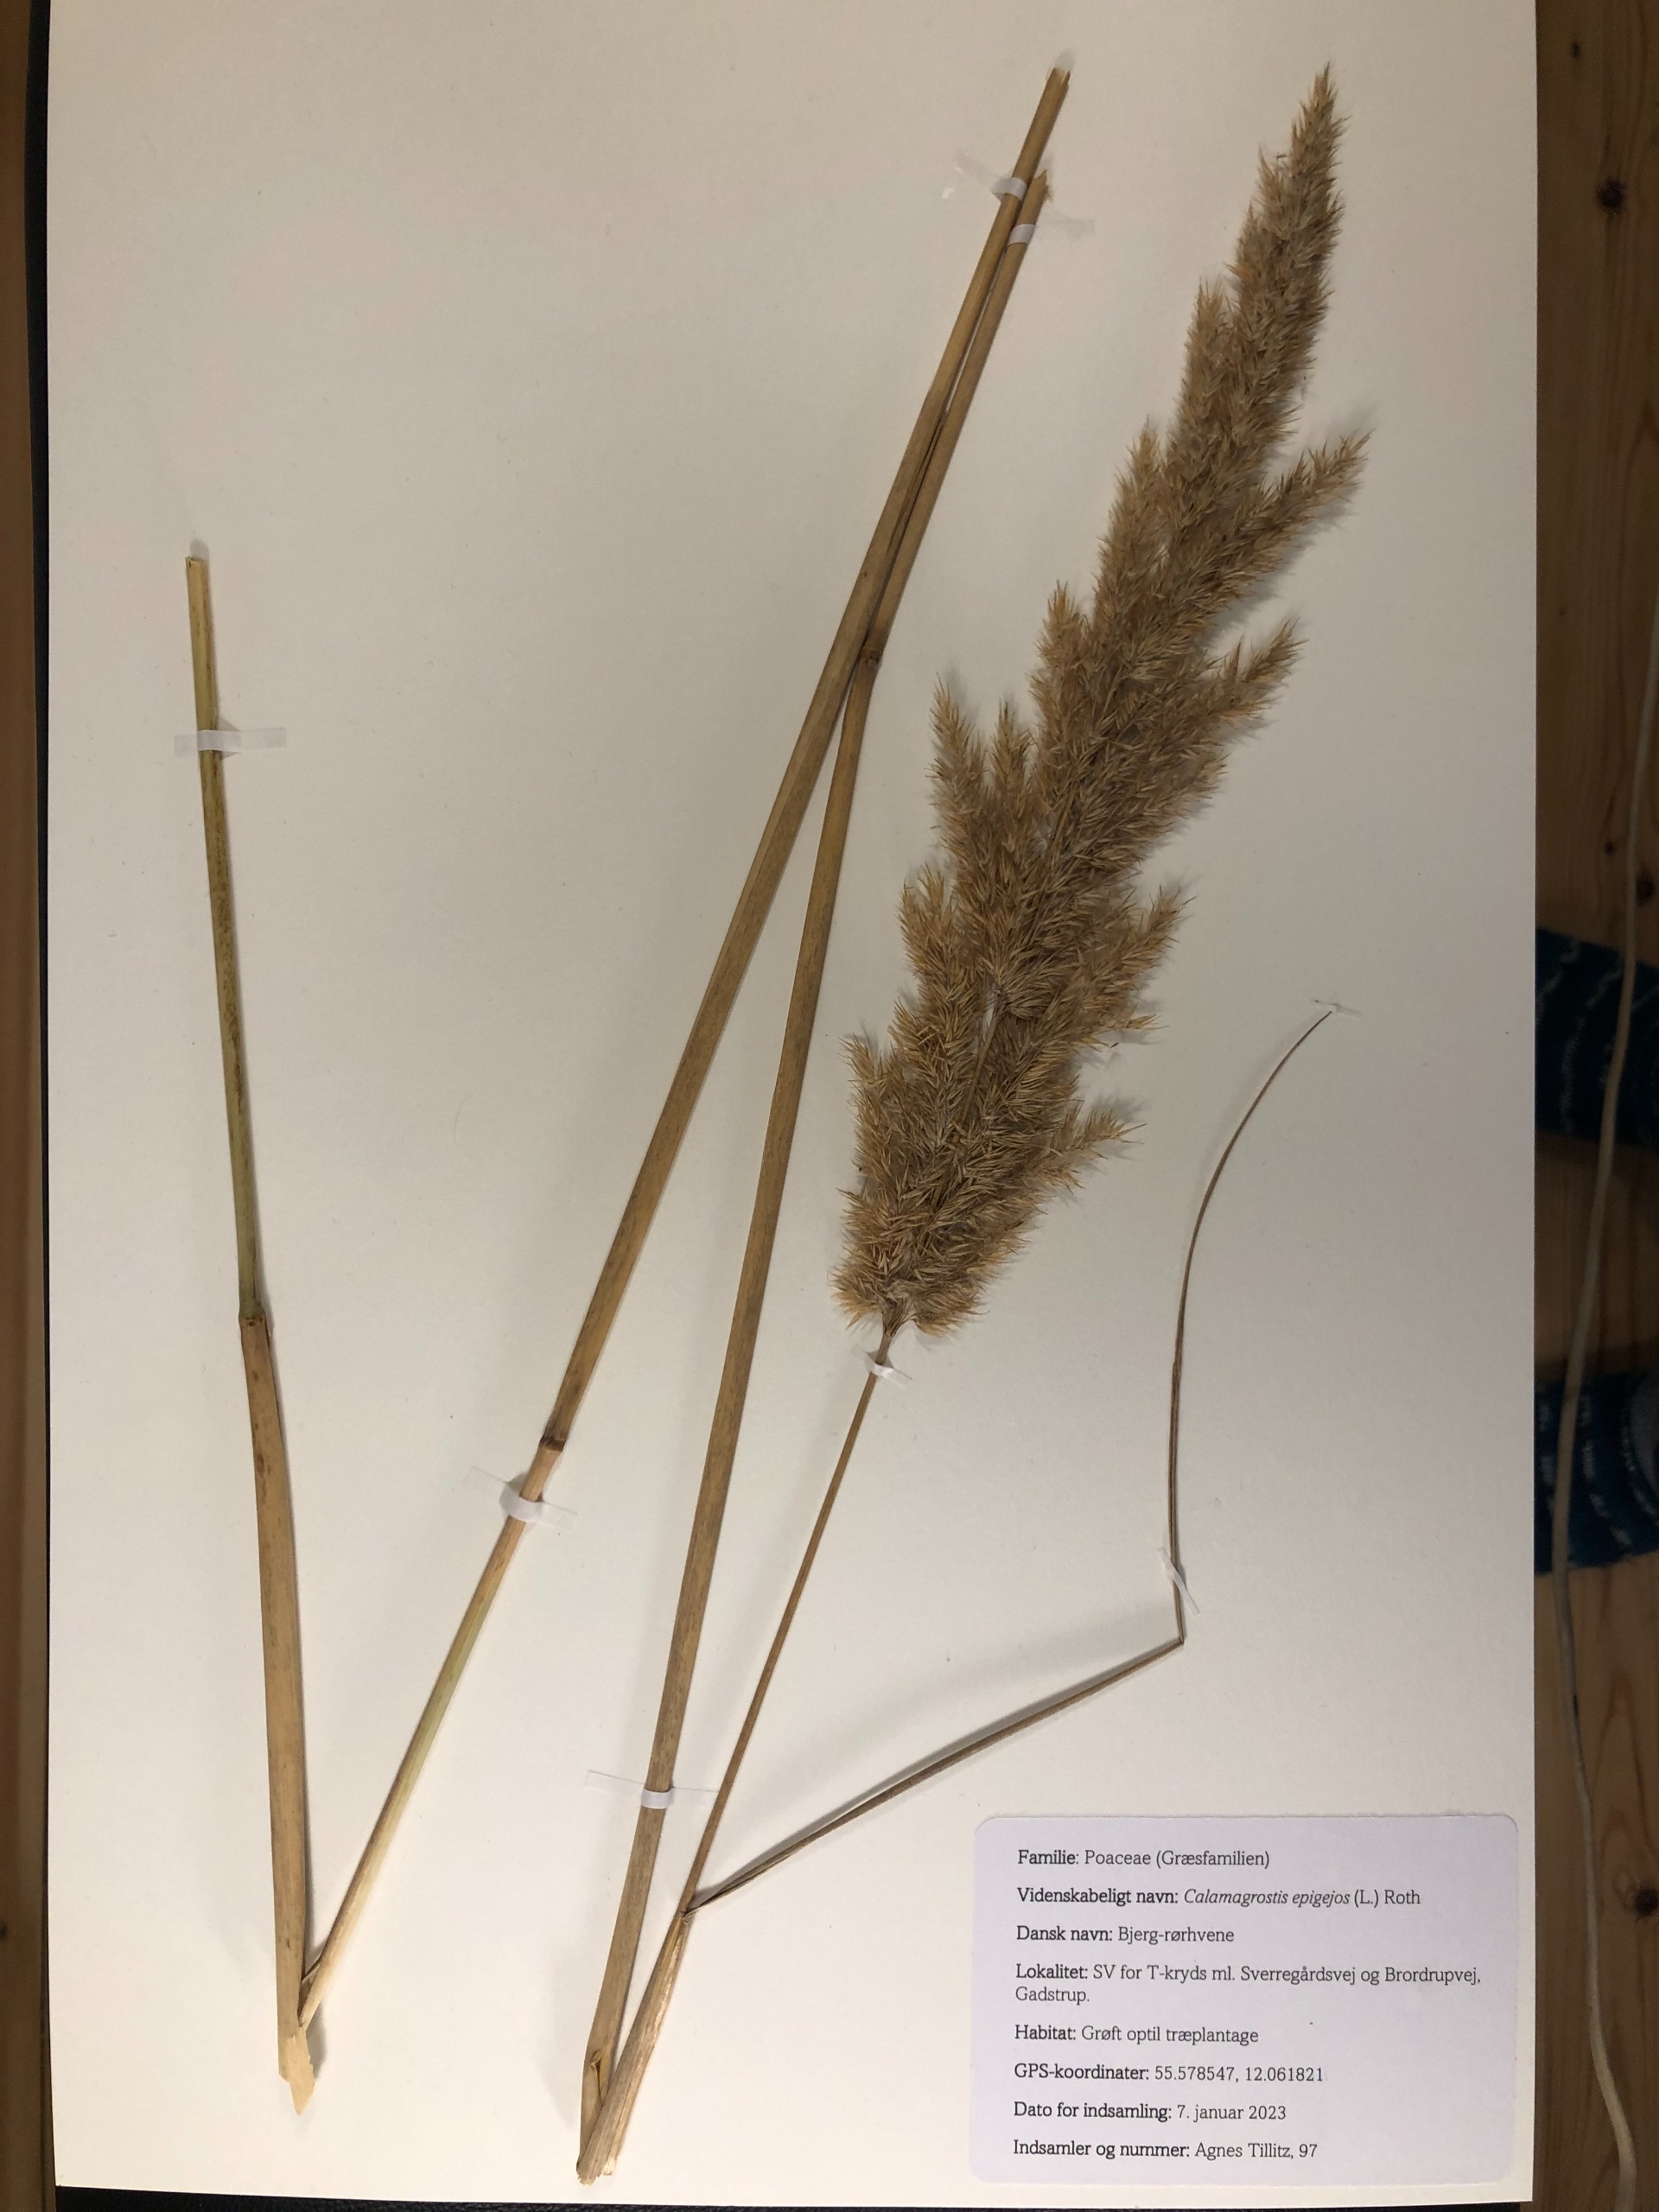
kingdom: Plantae
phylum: Tracheophyta
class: Liliopsida
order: Poales
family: Poaceae
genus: Calamagrostis
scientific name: Calamagrostis epigejos
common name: Bjerg-rørhvene
